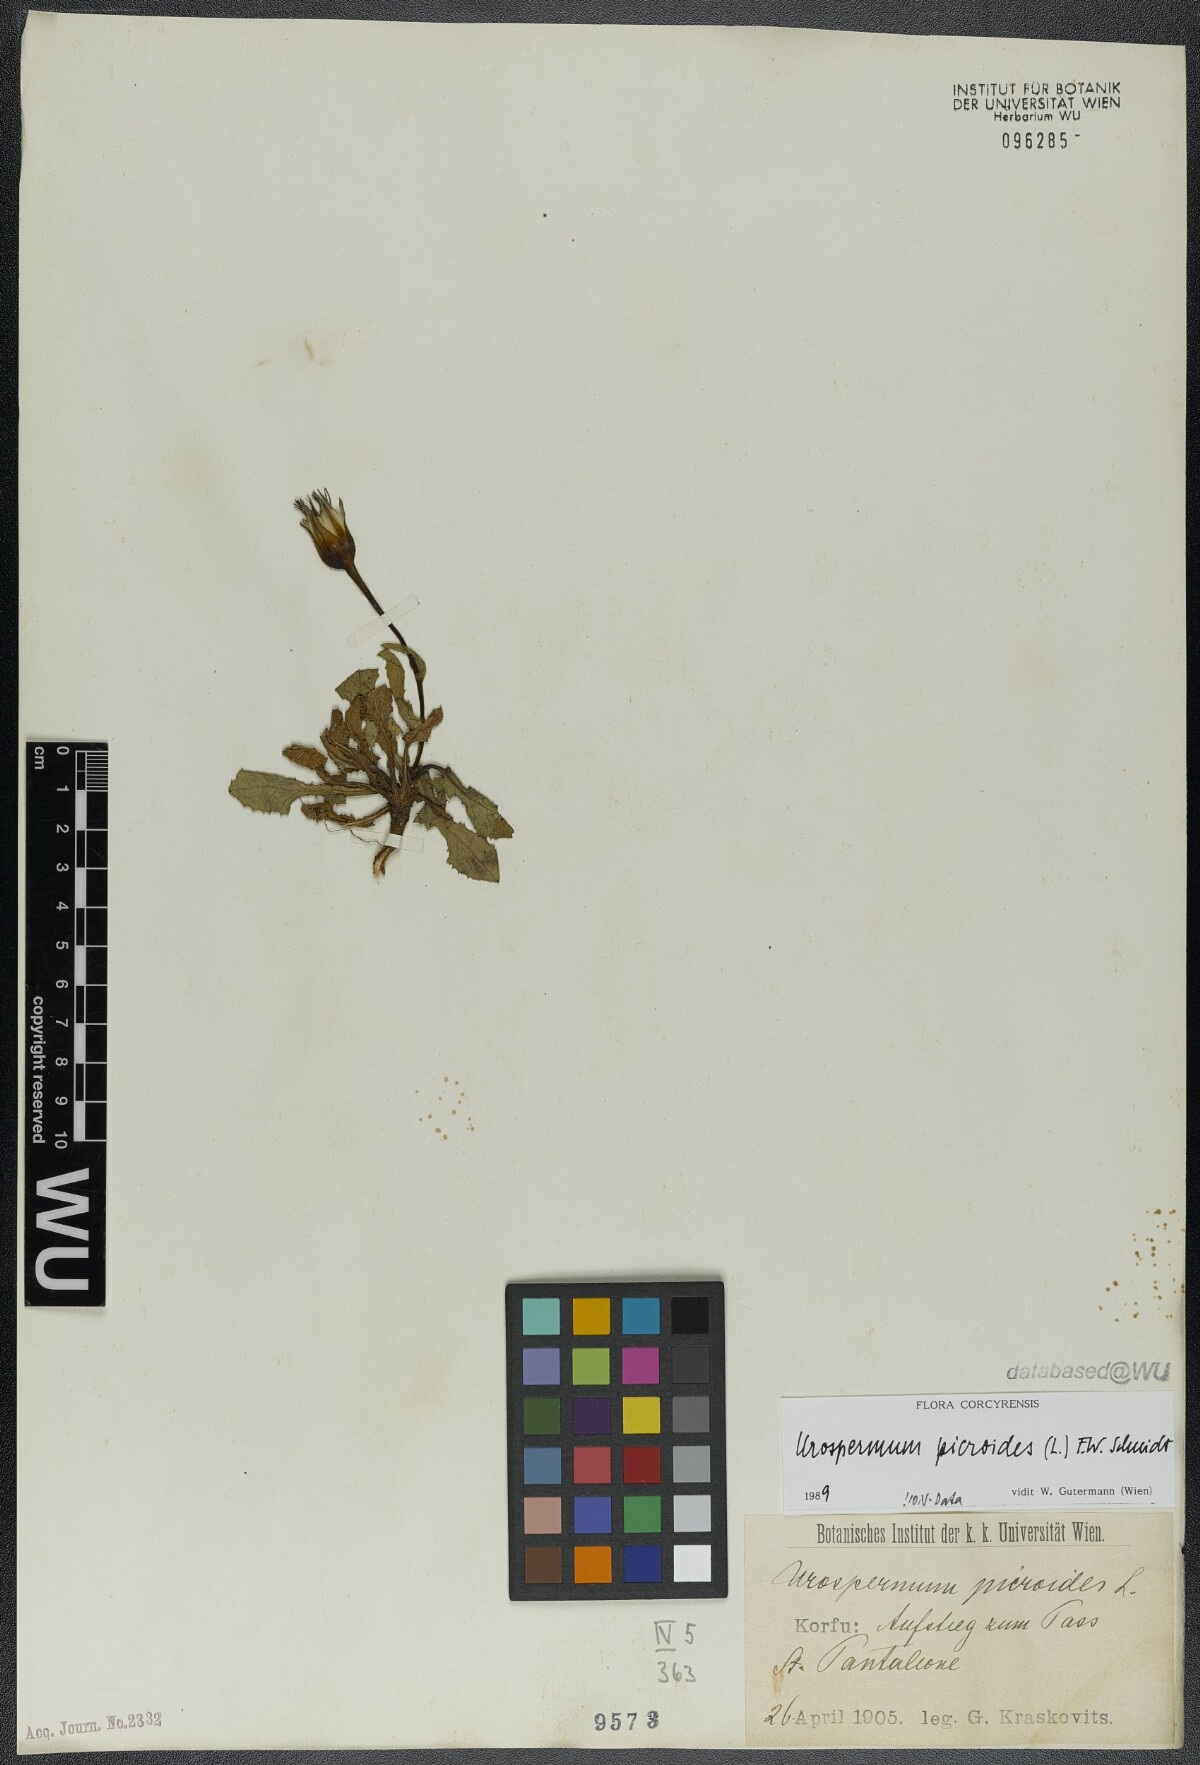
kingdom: Plantae
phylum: Tracheophyta
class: Magnoliopsida
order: Asterales
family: Asteraceae
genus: Urospermum
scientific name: Urospermum picroides
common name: False hawkbit
